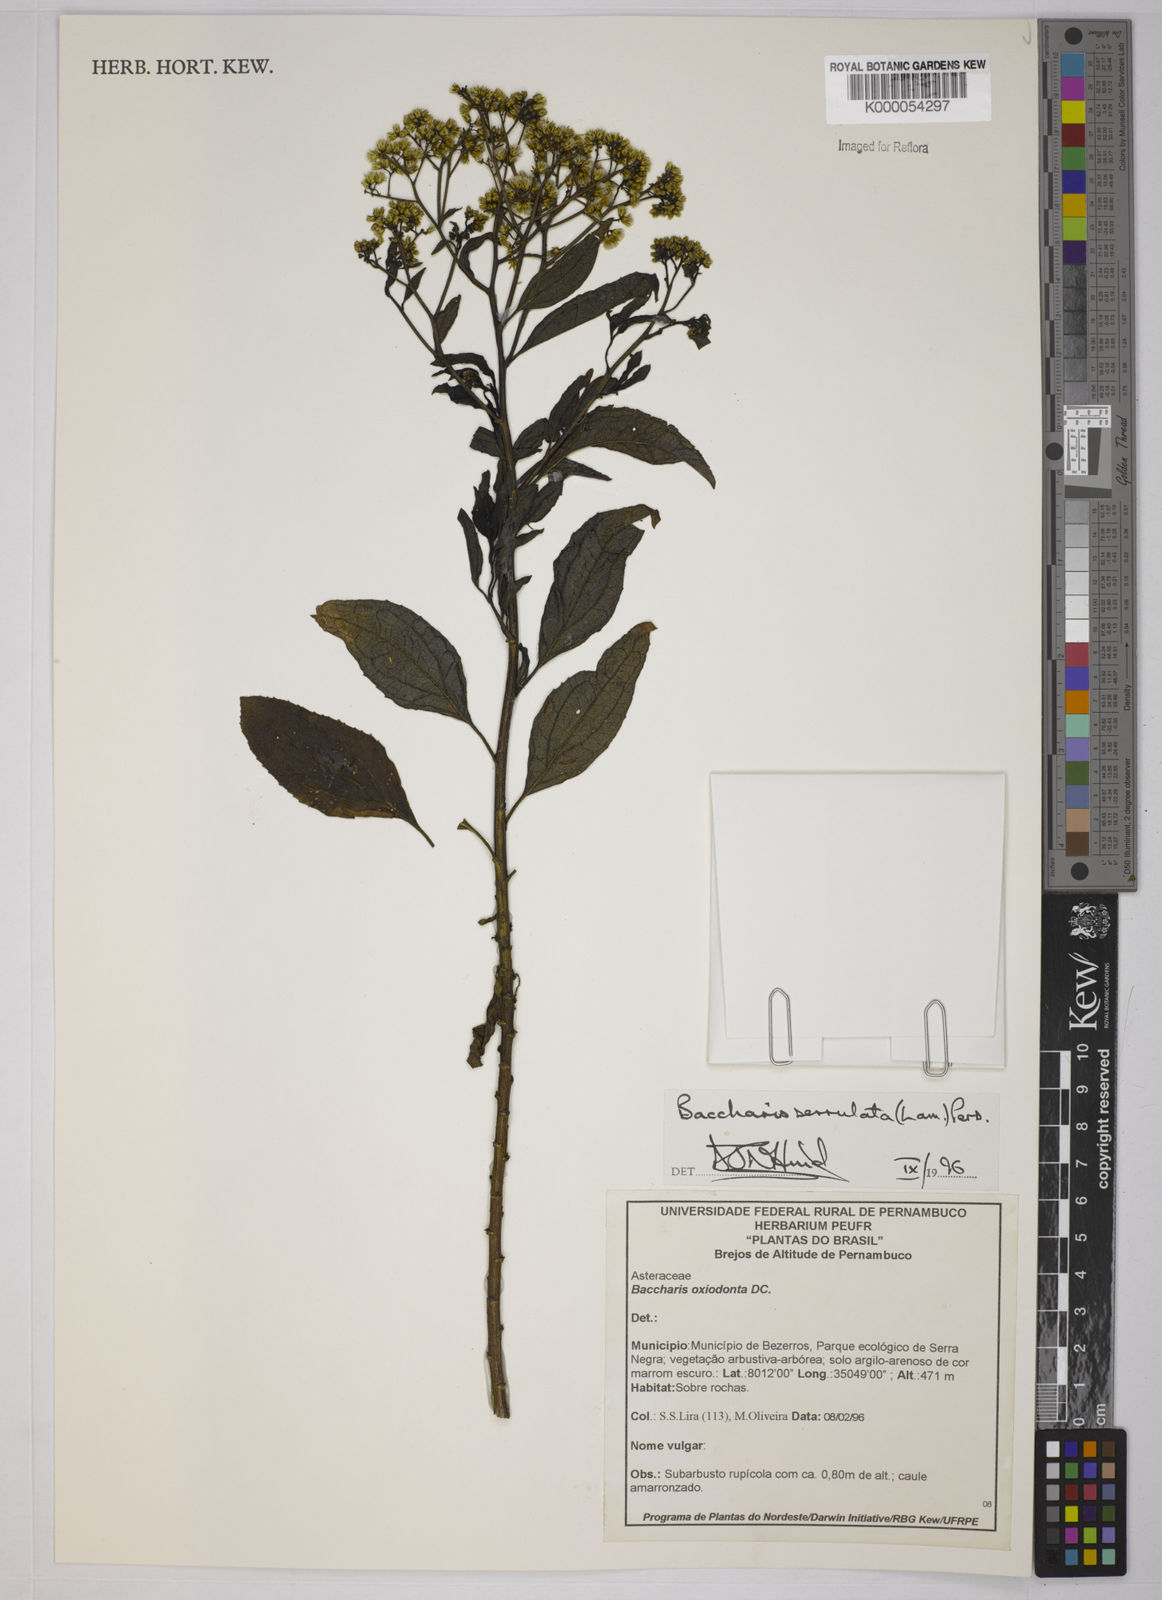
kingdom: Plantae
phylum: Tracheophyta
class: Magnoliopsida
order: Asterales
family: Asteraceae
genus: Baccharis
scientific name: Baccharis serrulata
